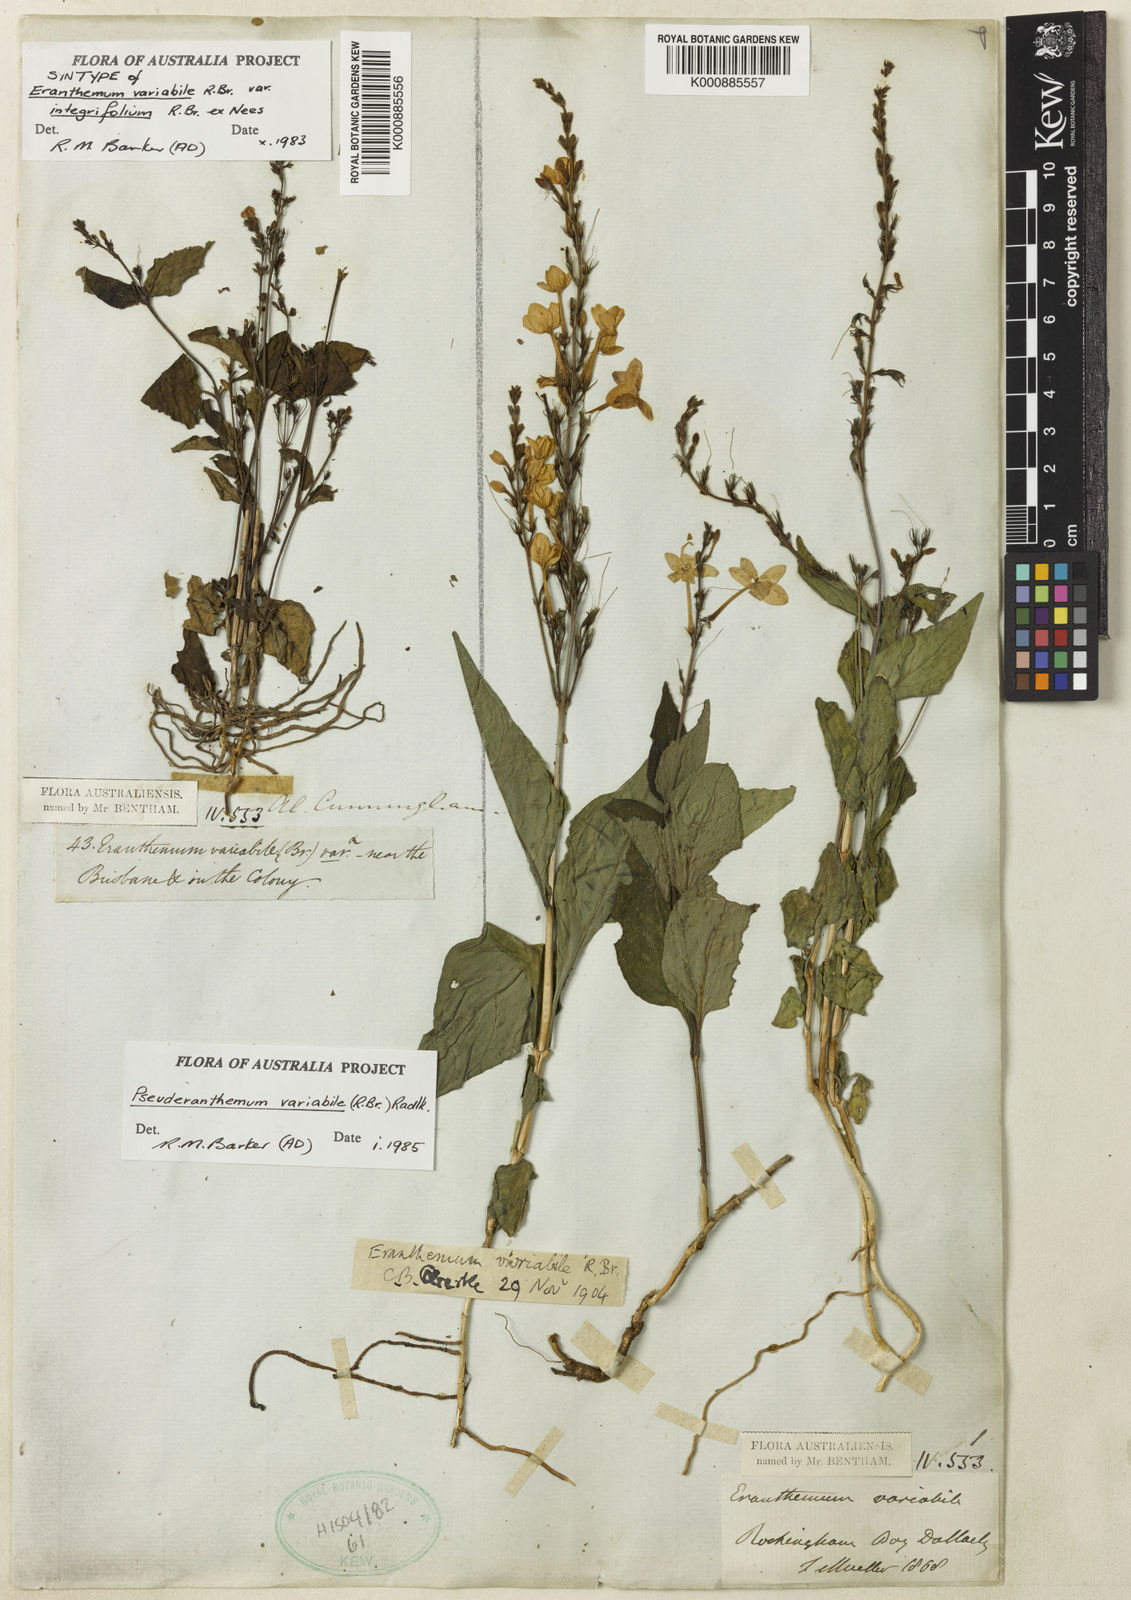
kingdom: Plantae
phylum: Tracheophyta
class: Magnoliopsida
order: Lamiales
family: Acanthaceae
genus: Pseuderanthemum
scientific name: Pseuderanthemum variabile
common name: Night and afternoon
